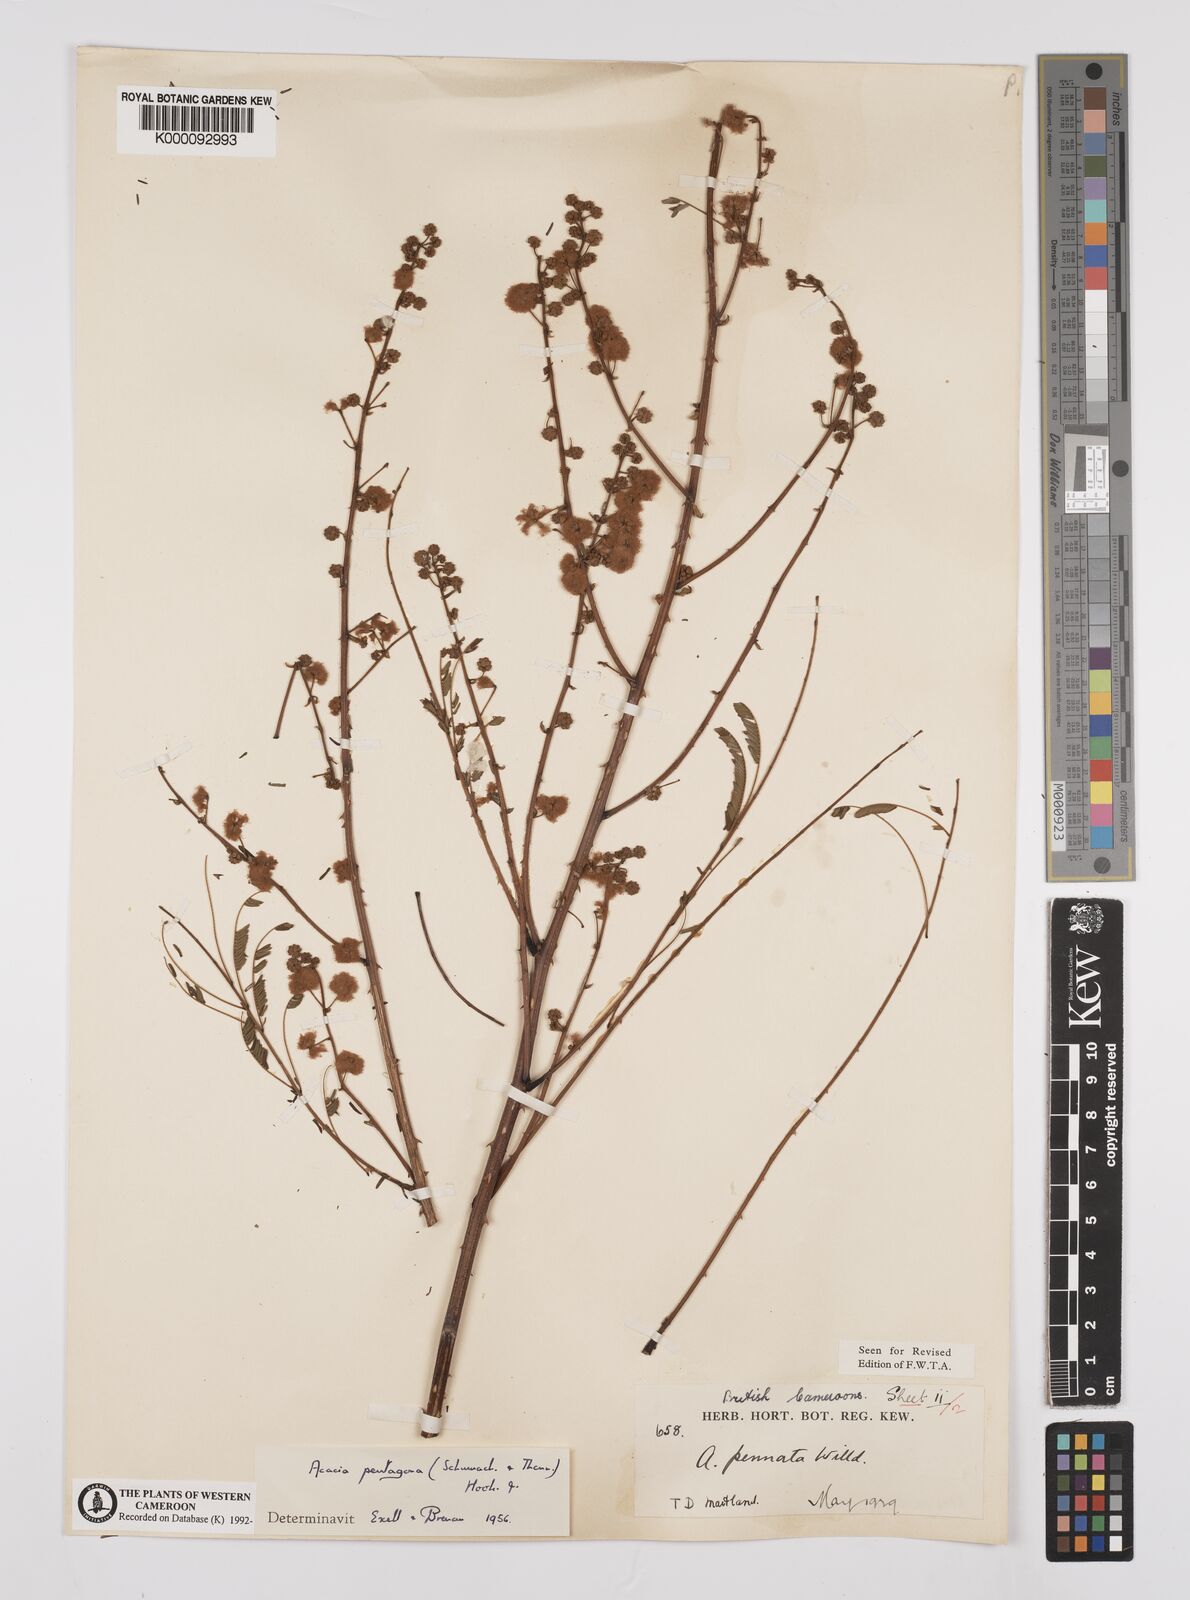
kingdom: Plantae
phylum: Tracheophyta
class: Magnoliopsida
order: Fabales
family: Fabaceae
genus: Senegalia
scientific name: Senegalia pentagona
